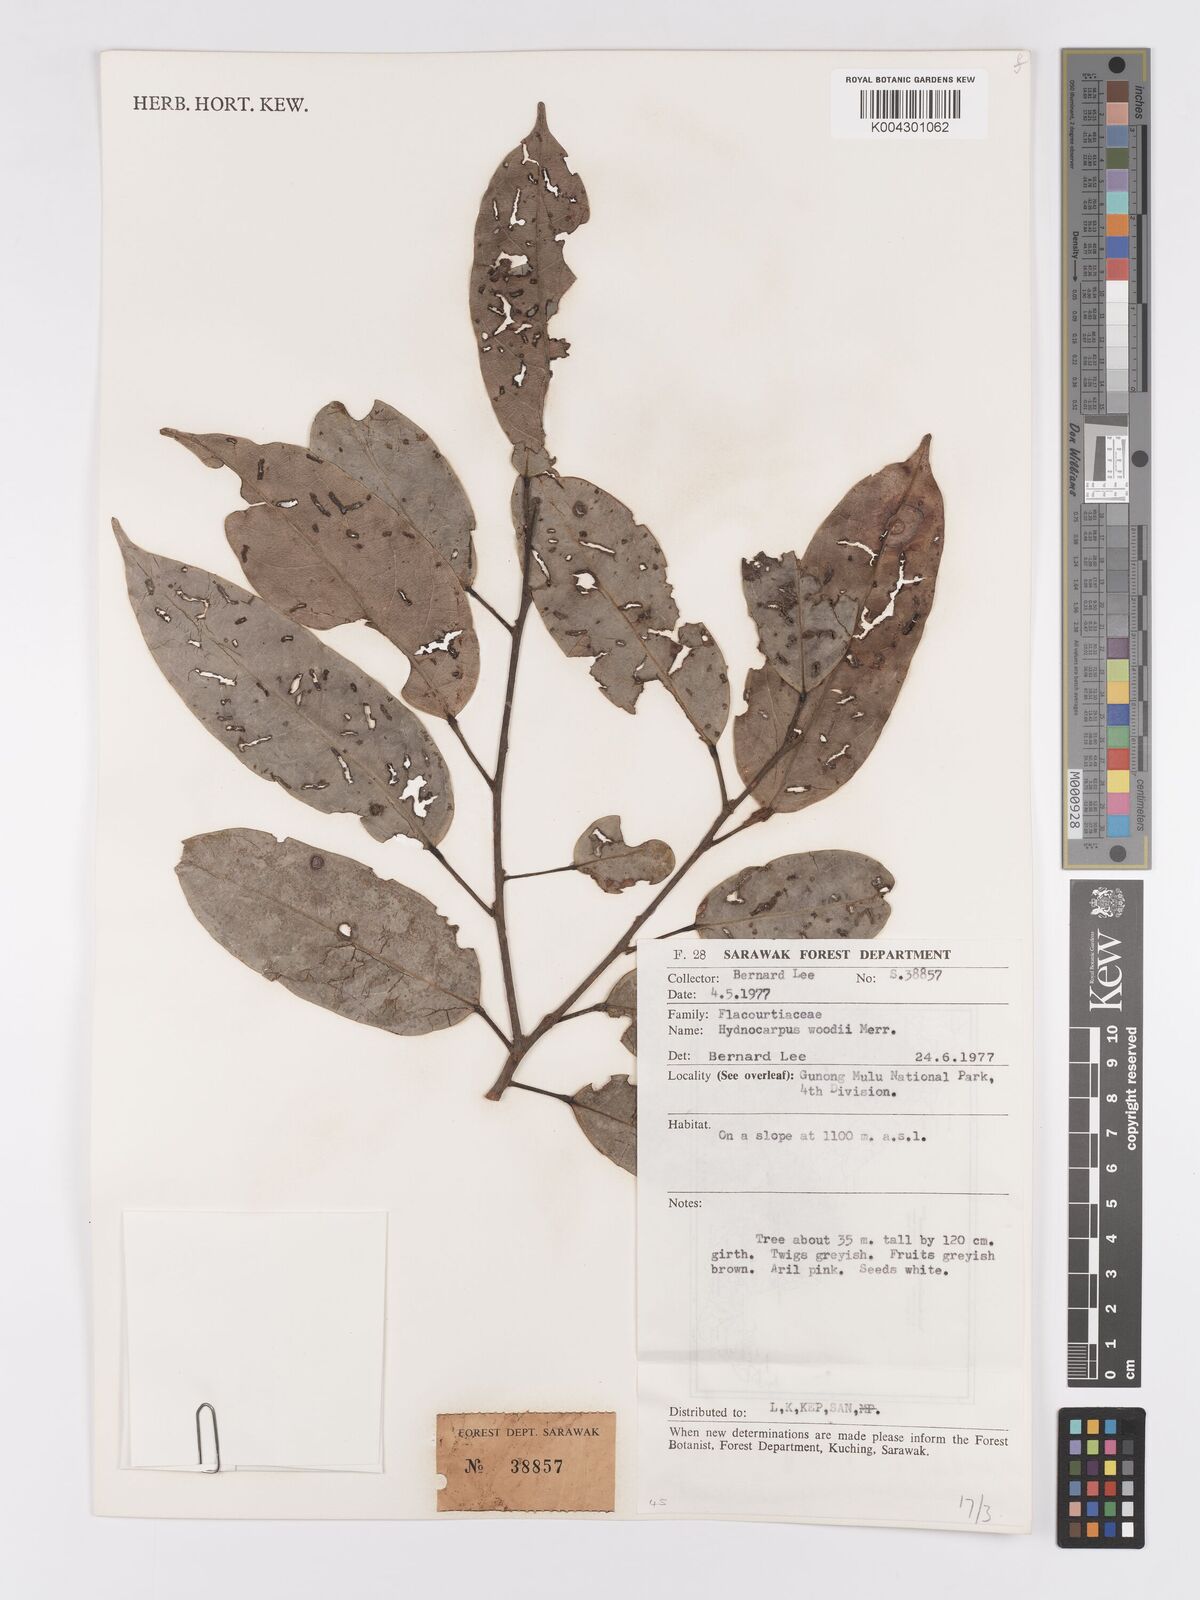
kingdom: Plantae
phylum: Tracheophyta
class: Magnoliopsida
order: Malpighiales
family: Achariaceae
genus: Hydnocarpus
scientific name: Hydnocarpus woodii
